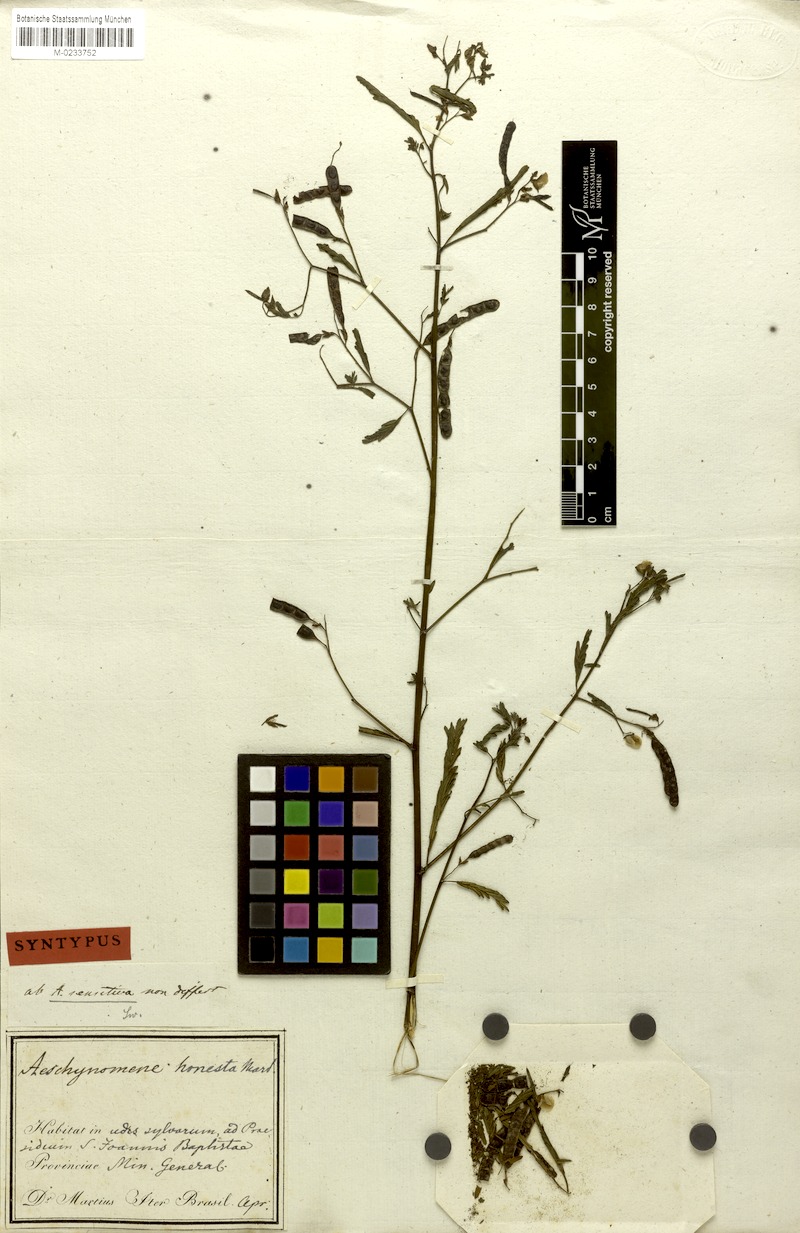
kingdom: Plantae
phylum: Tracheophyta
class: Magnoliopsida
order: Fabales
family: Fabaceae
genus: Aeschynomene
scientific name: Aeschynomene sensitiva
